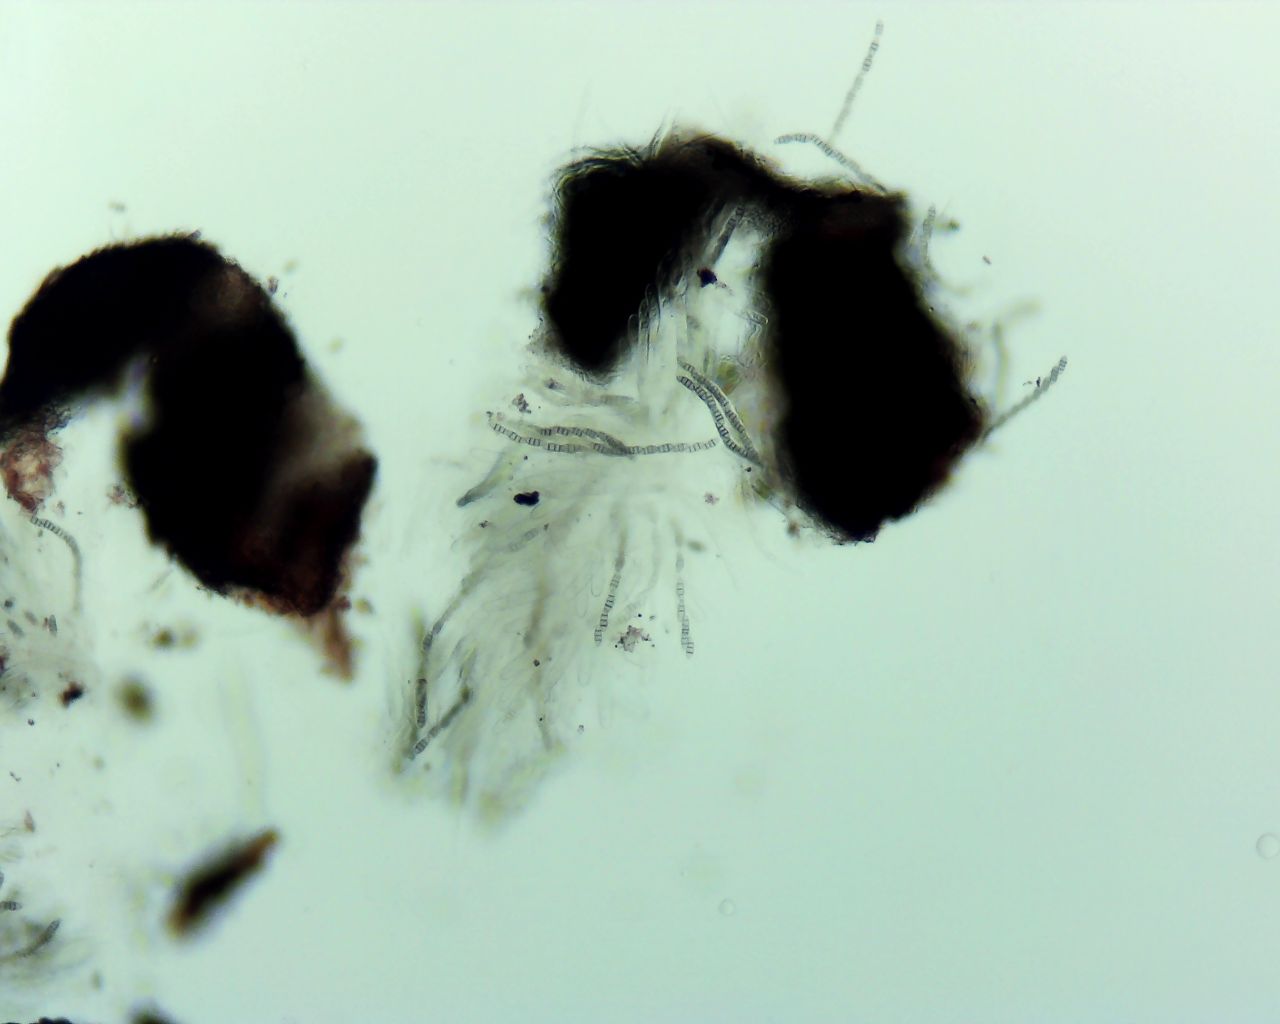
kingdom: Fungi
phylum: Ascomycota
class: Dothideomycetes
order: Pleosporales
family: Melanommataceae
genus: Melanomma
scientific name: Melanomma pulvis-pyrius
